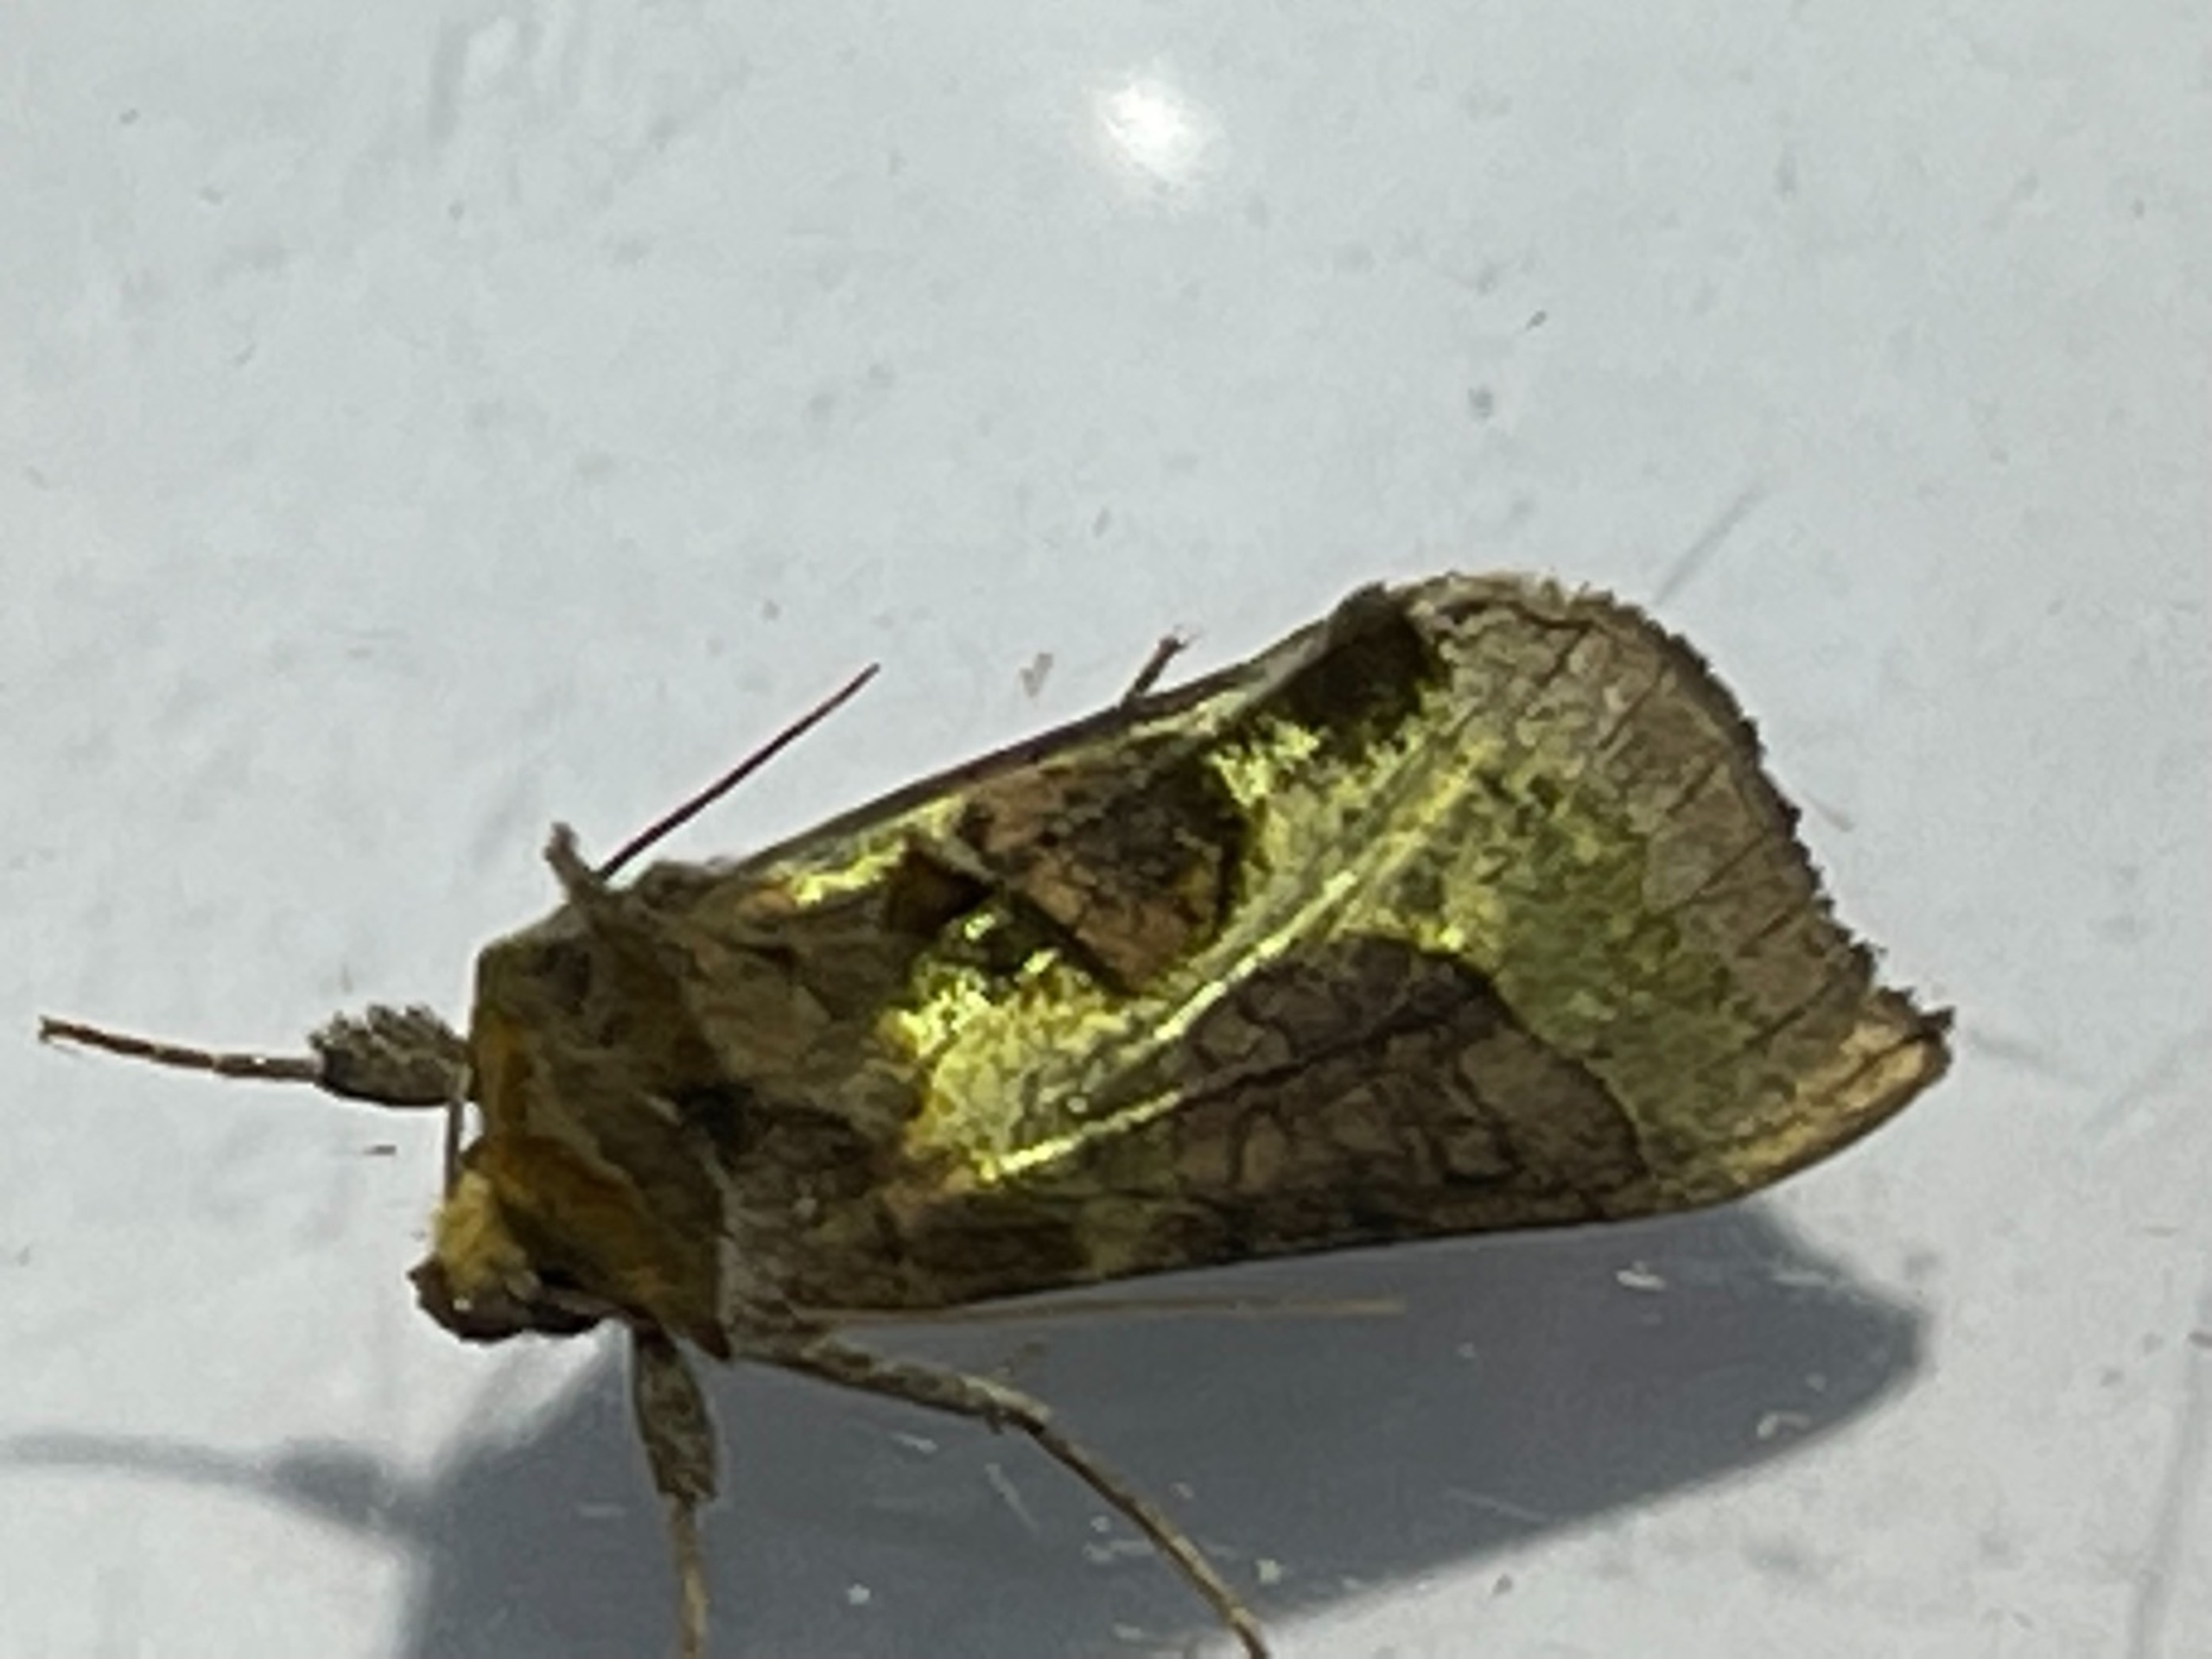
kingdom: Animalia
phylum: Arthropoda
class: Insecta
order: Lepidoptera
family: Noctuidae
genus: Diachrysia
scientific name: Diachrysia stenochrysis
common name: Udelt messingugle
